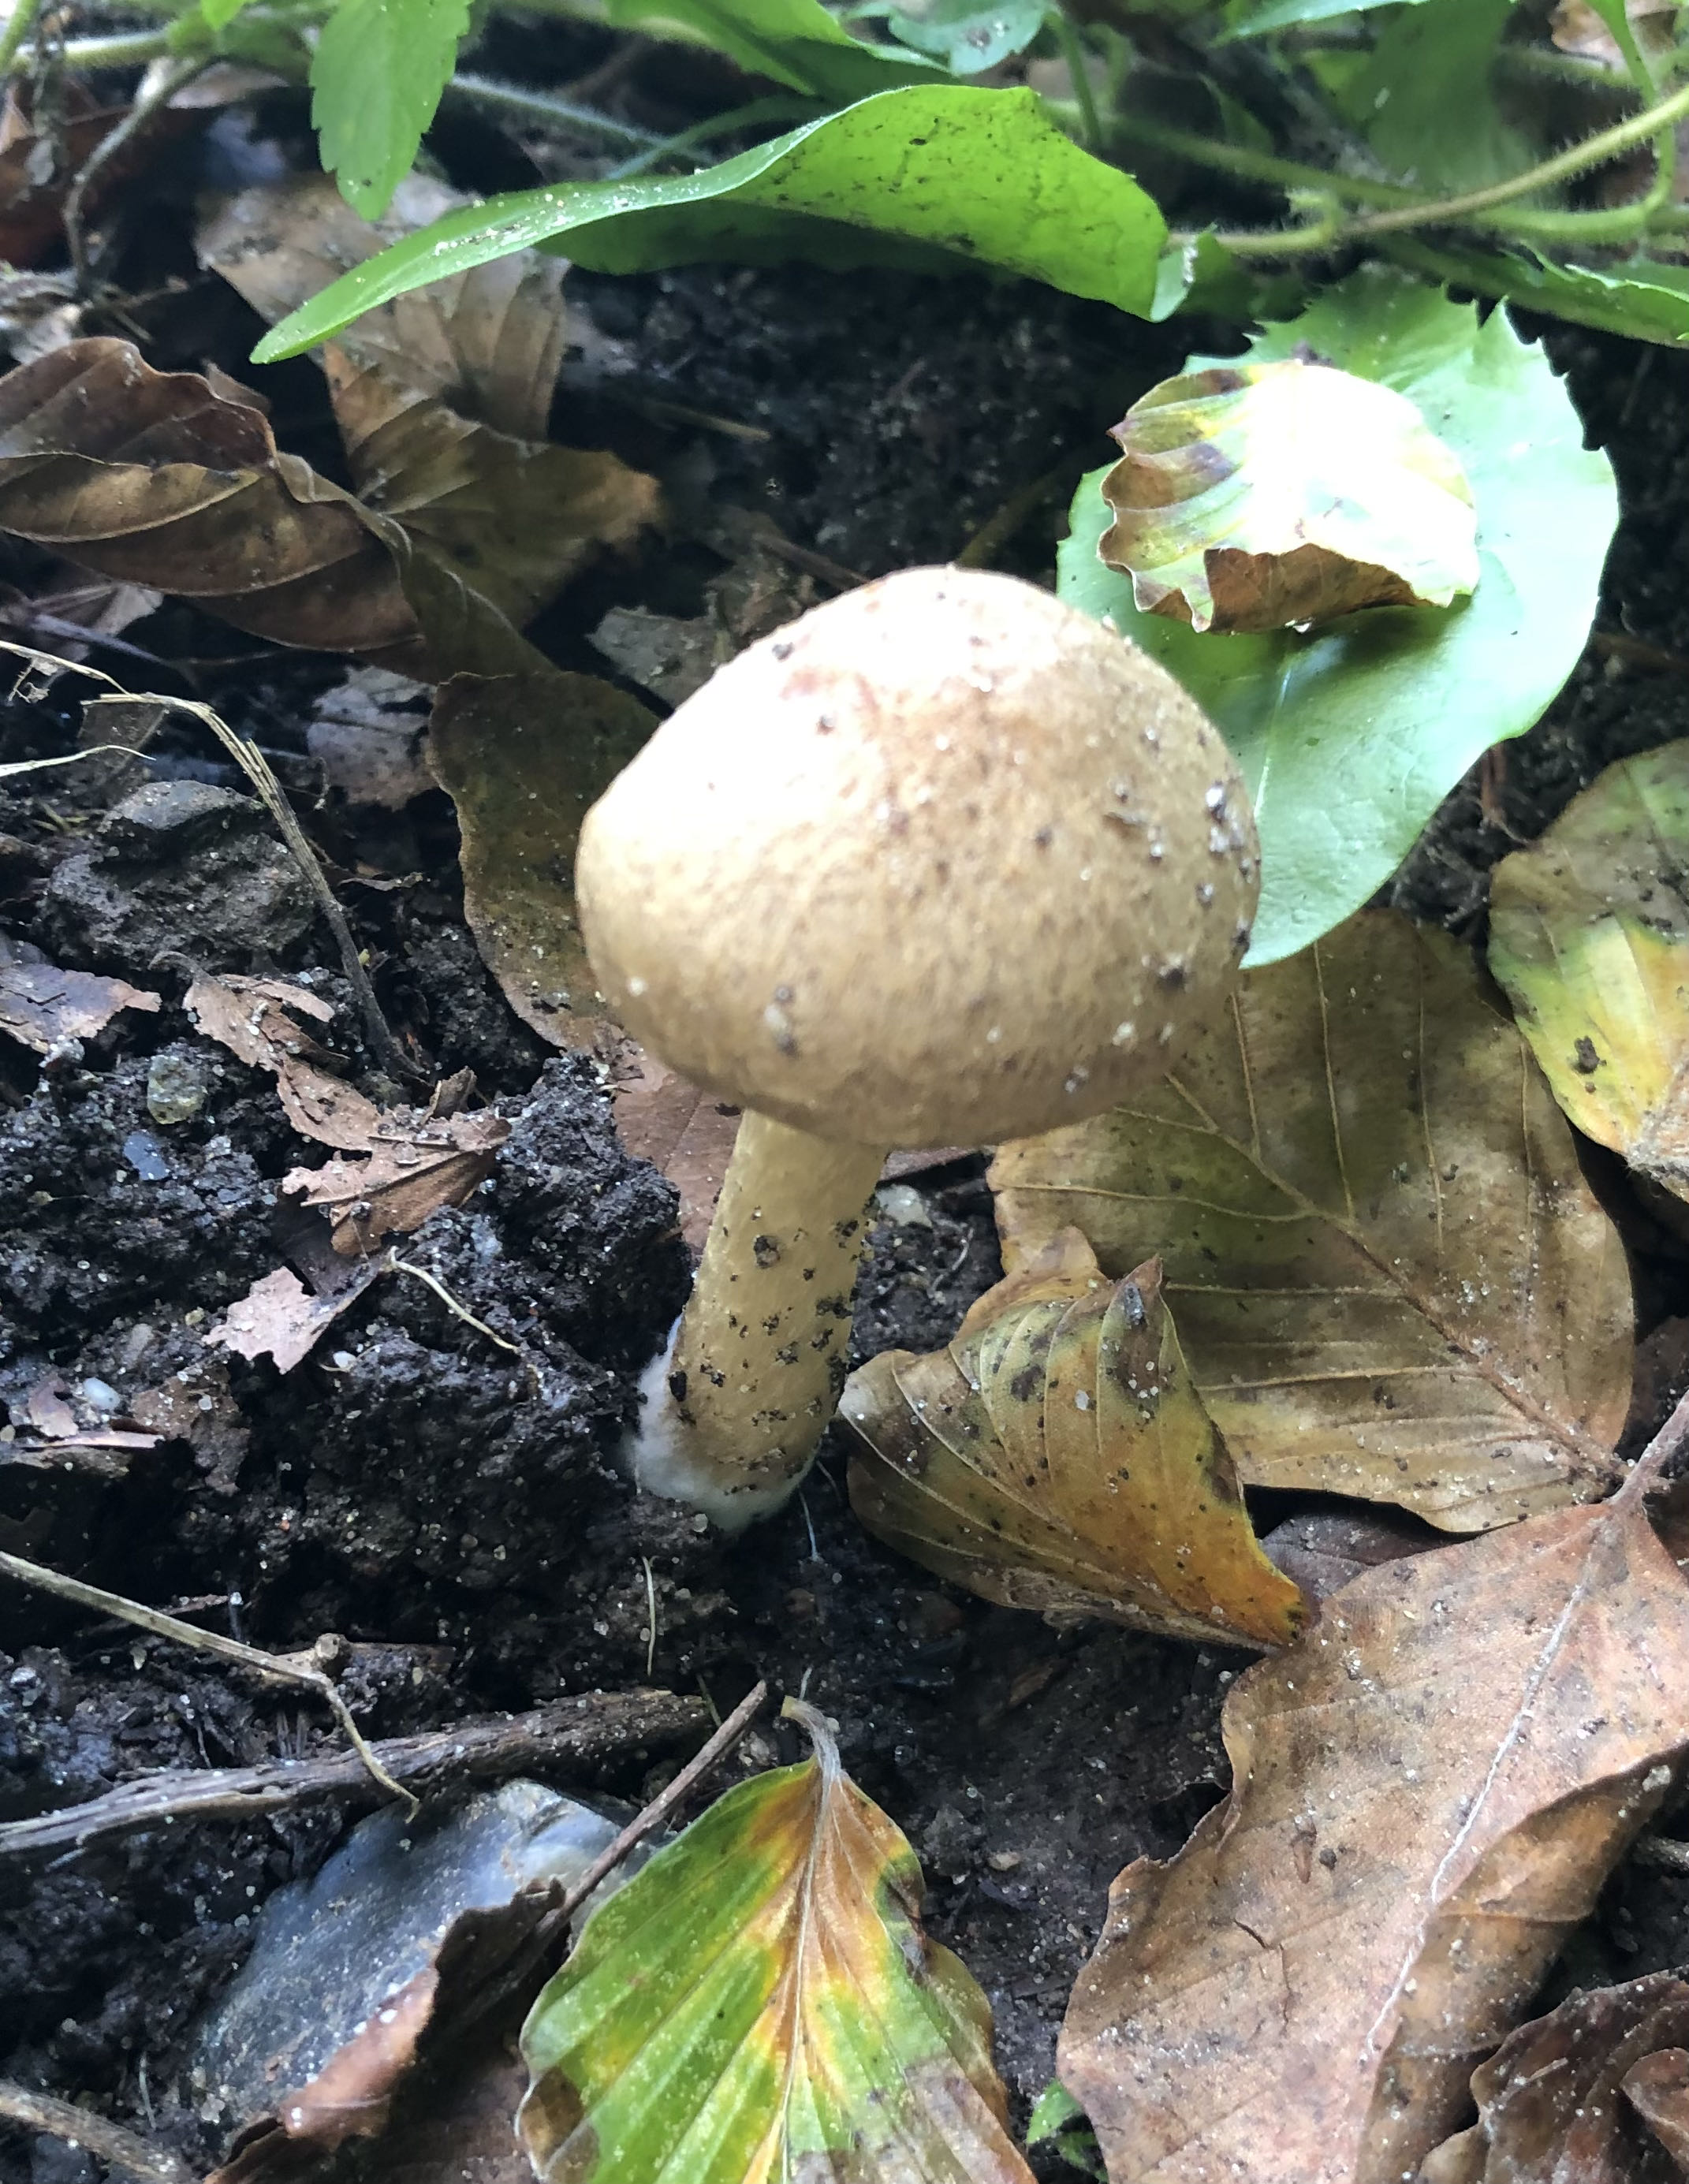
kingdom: Fungi
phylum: Basidiomycota
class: Agaricomycetes
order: Agaricales
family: Psathyrellaceae
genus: Lacrymaria
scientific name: Lacrymaria lacrymabunda
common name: grædende mørkhat
